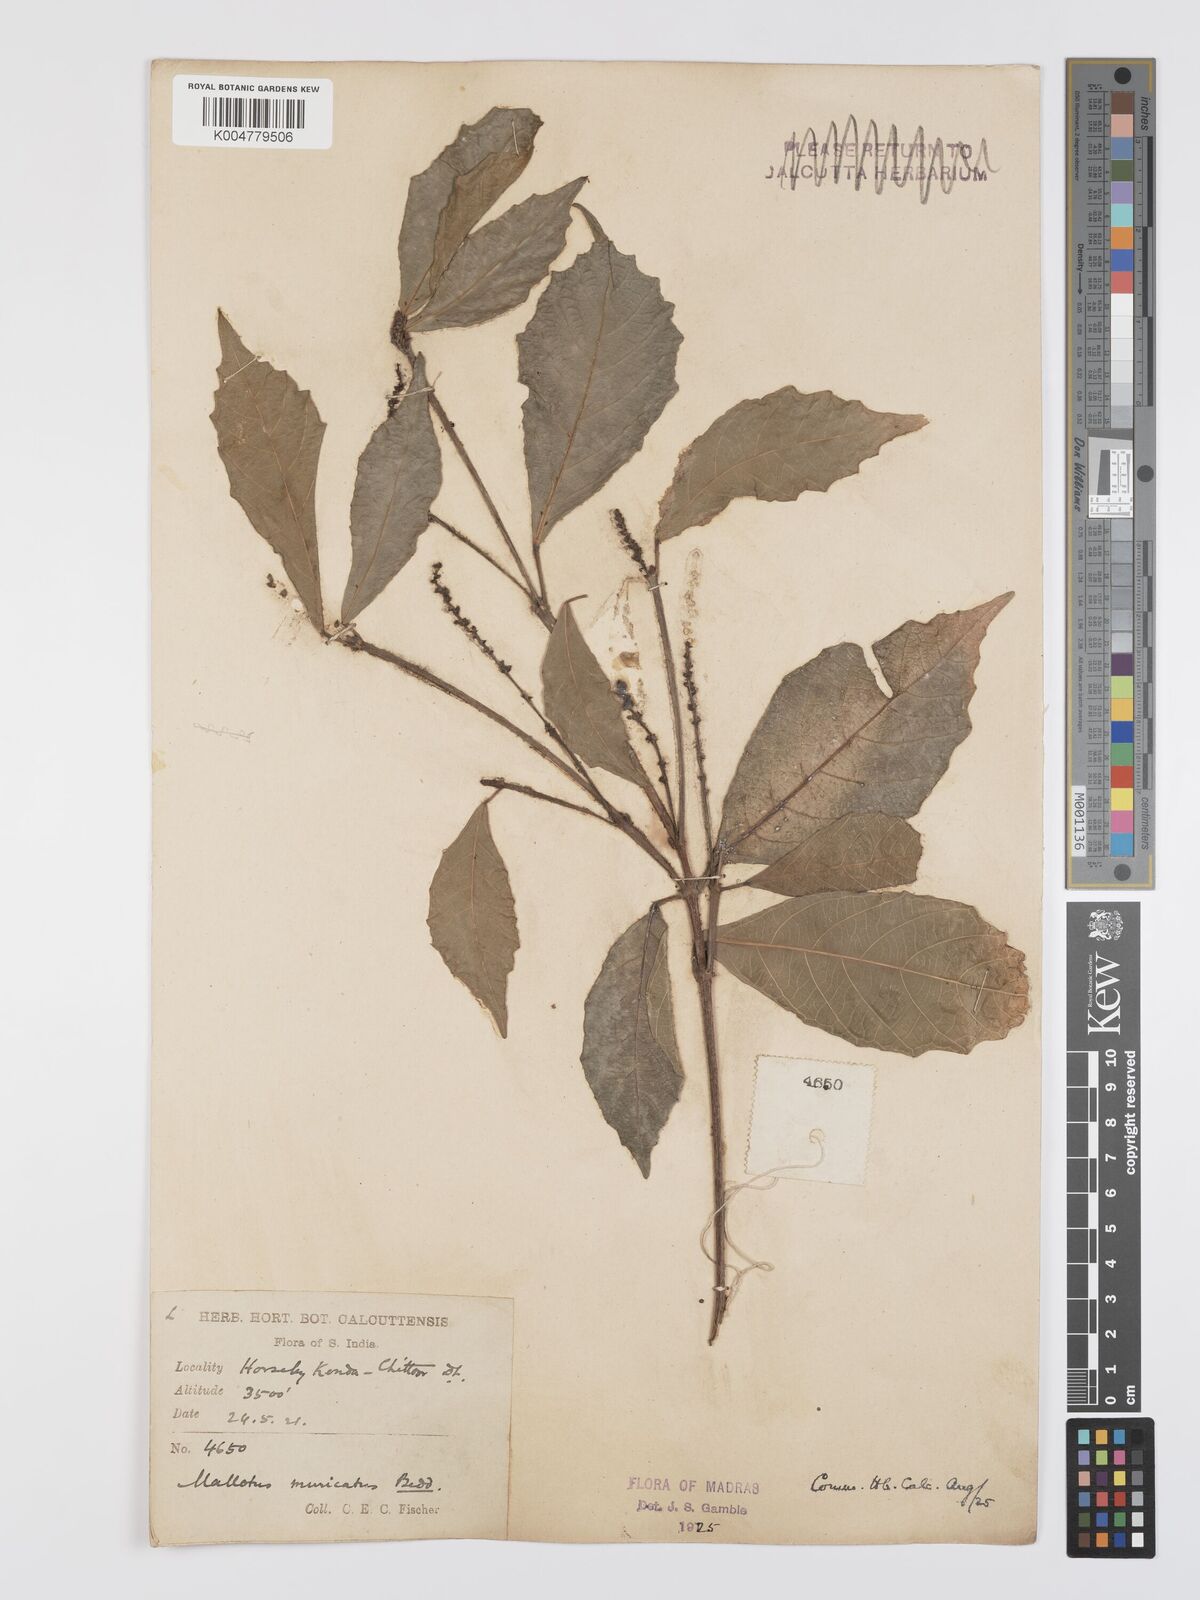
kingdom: Plantae
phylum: Tracheophyta
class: Magnoliopsida
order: Malpighiales
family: Euphorbiaceae
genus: Mallotus
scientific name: Mallotus resinosus
